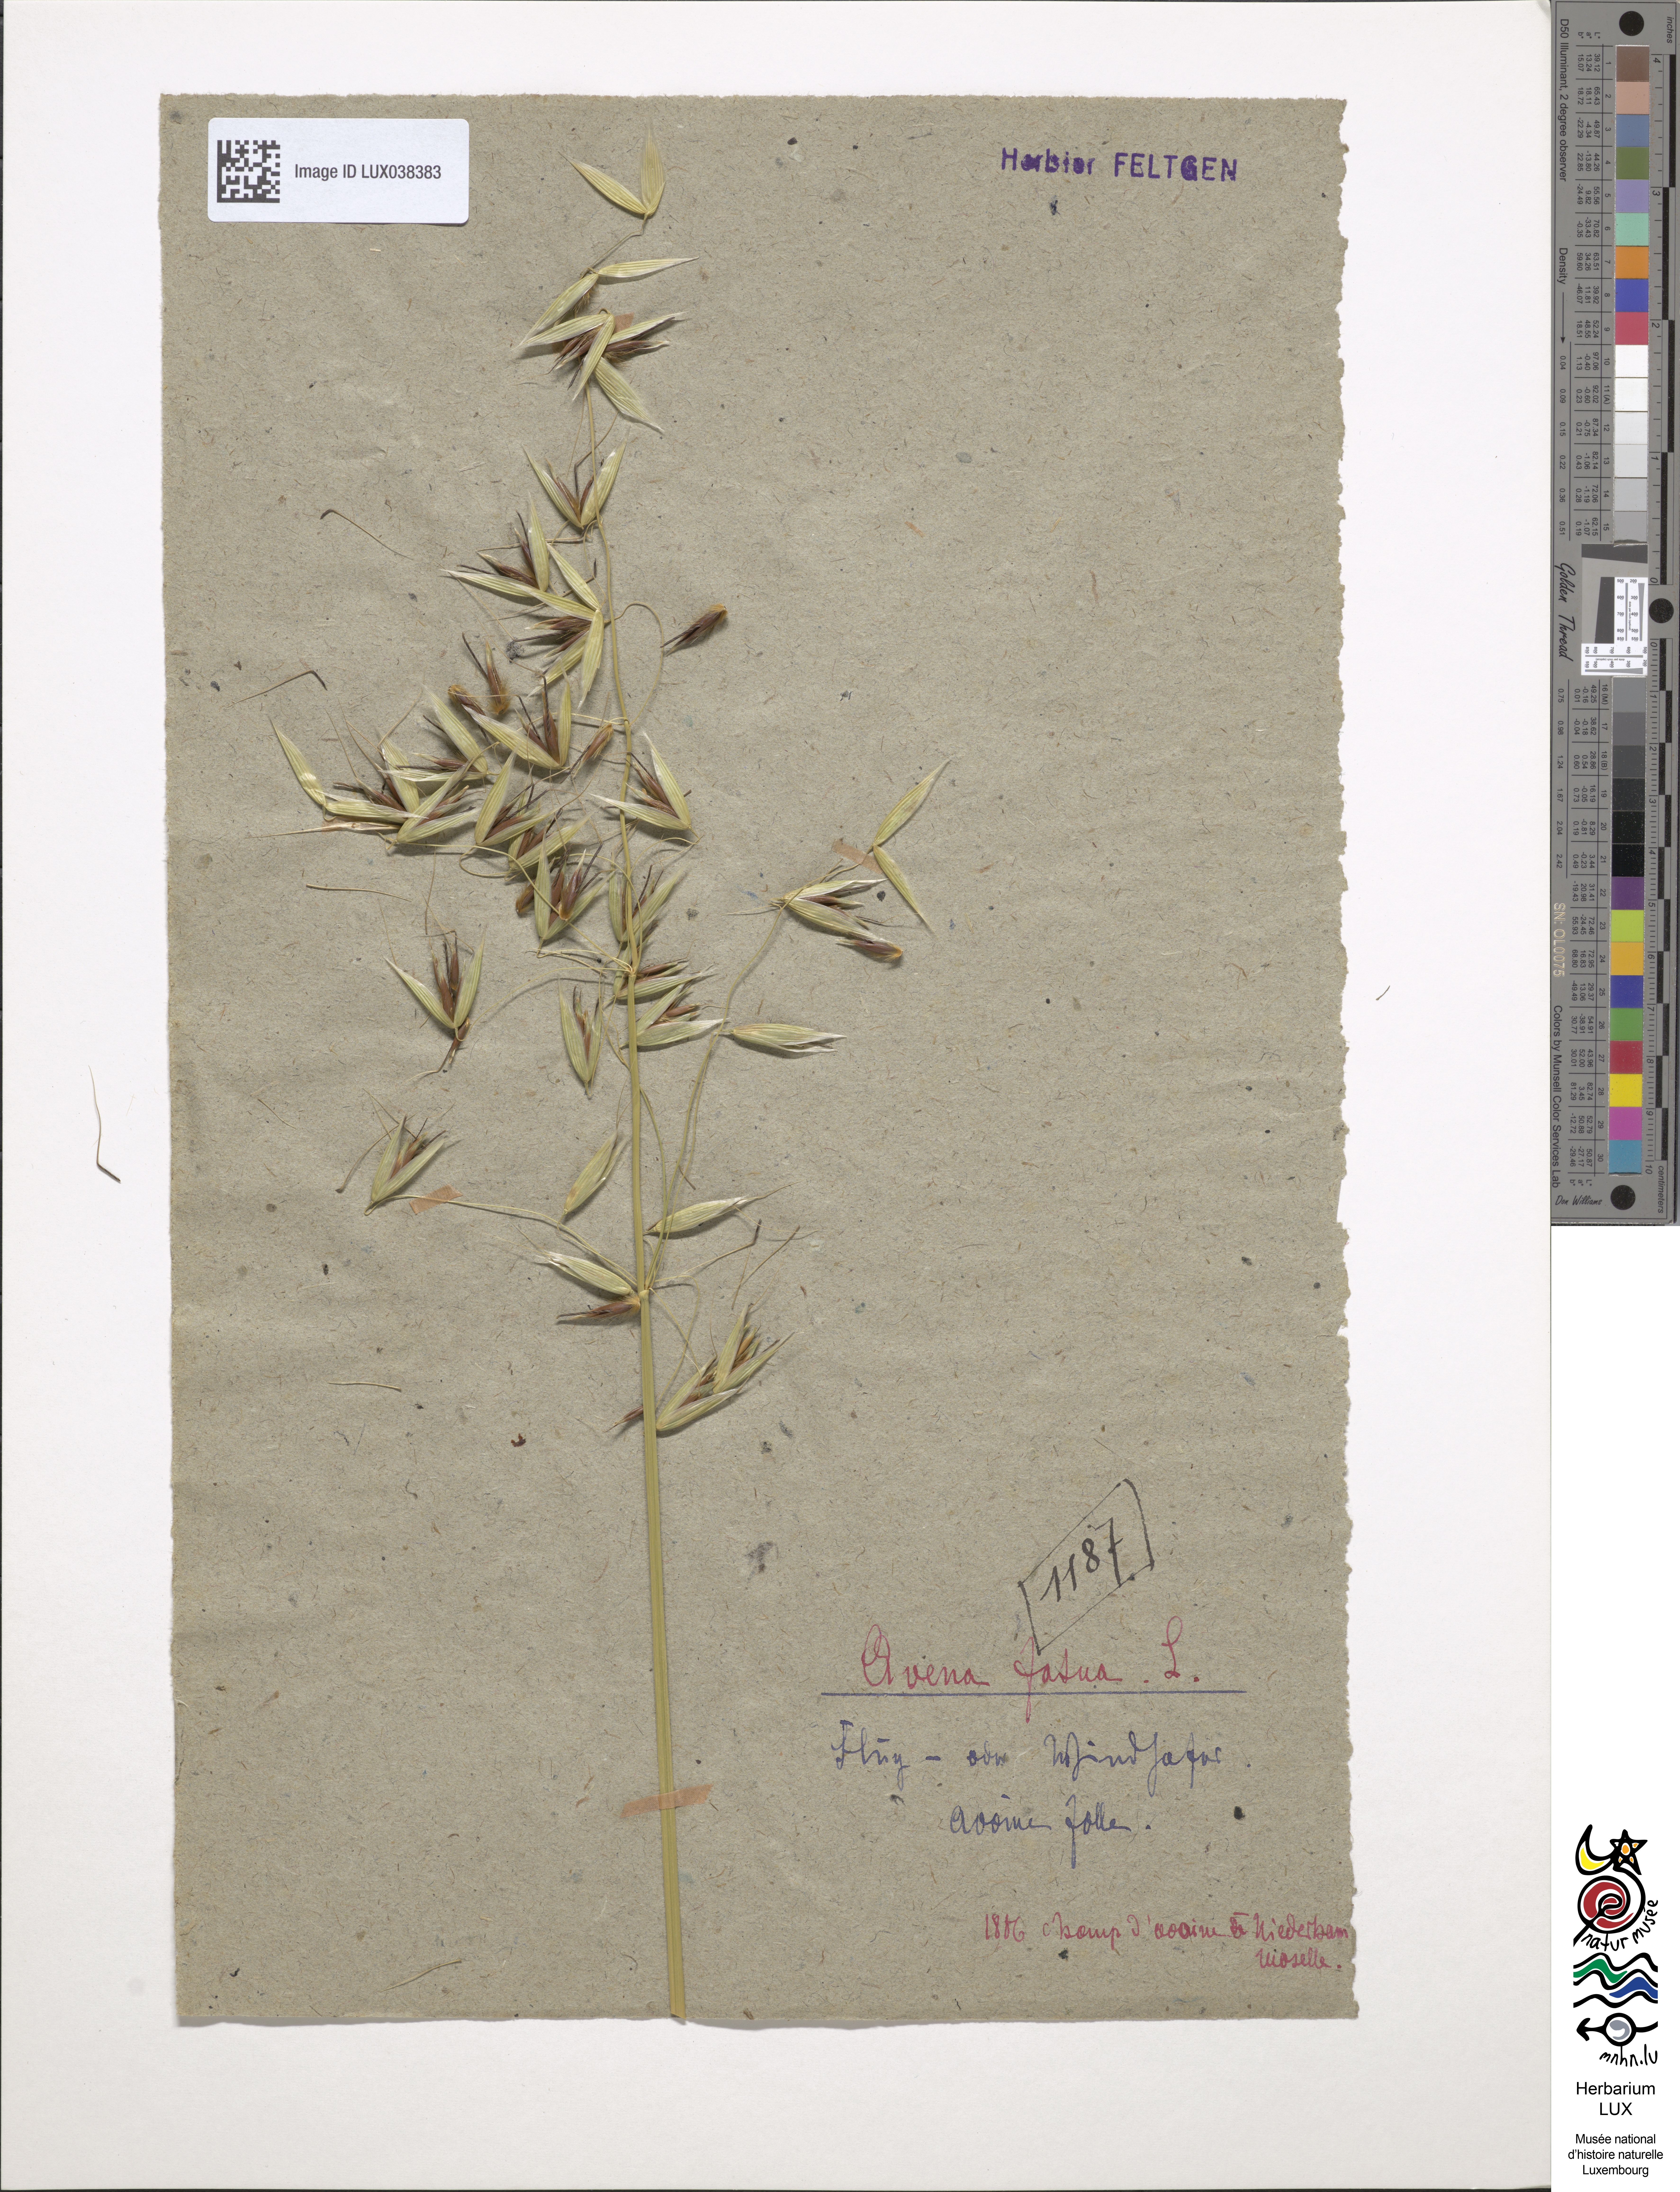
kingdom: Plantae
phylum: Tracheophyta
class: Liliopsida
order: Poales
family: Poaceae
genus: Avena
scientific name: Avena fatua
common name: Wild oat
